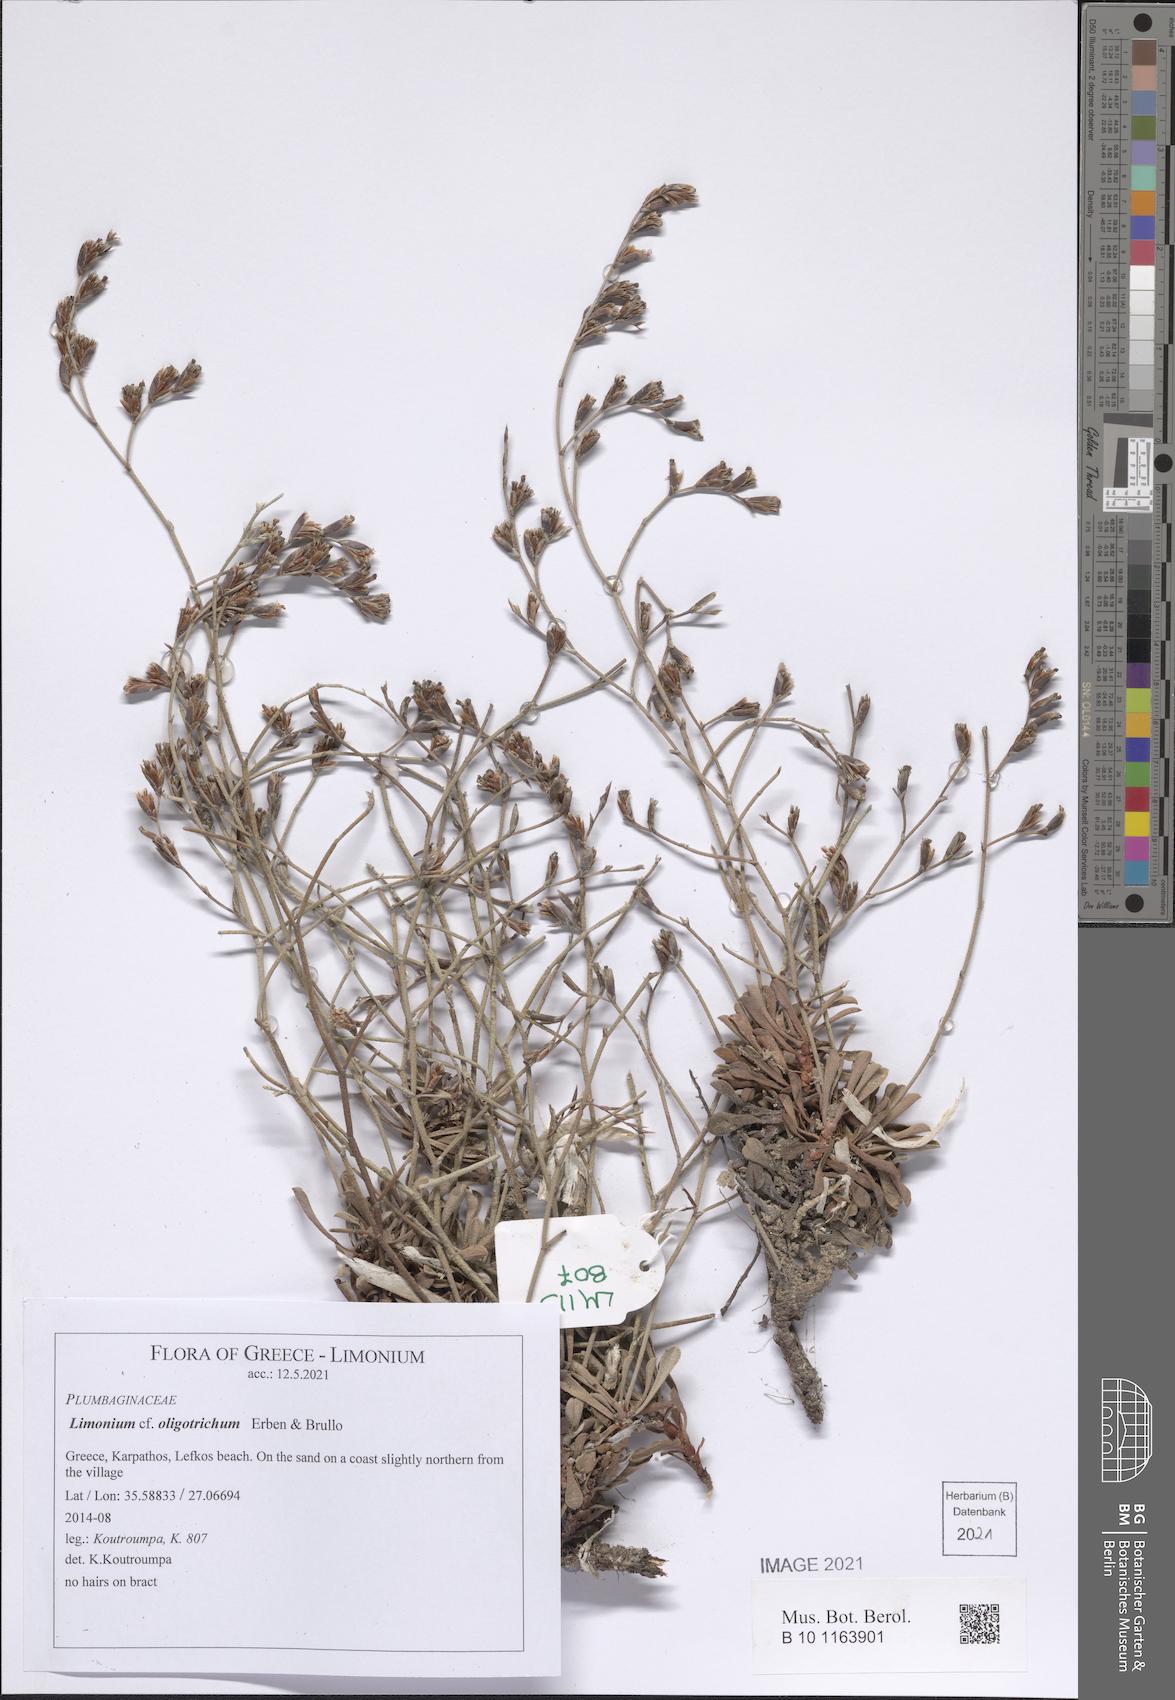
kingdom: Plantae
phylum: Tracheophyta
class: Magnoliopsida
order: Caryophyllales
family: Plumbaginaceae
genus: Limonium
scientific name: Limonium oligotrichum
